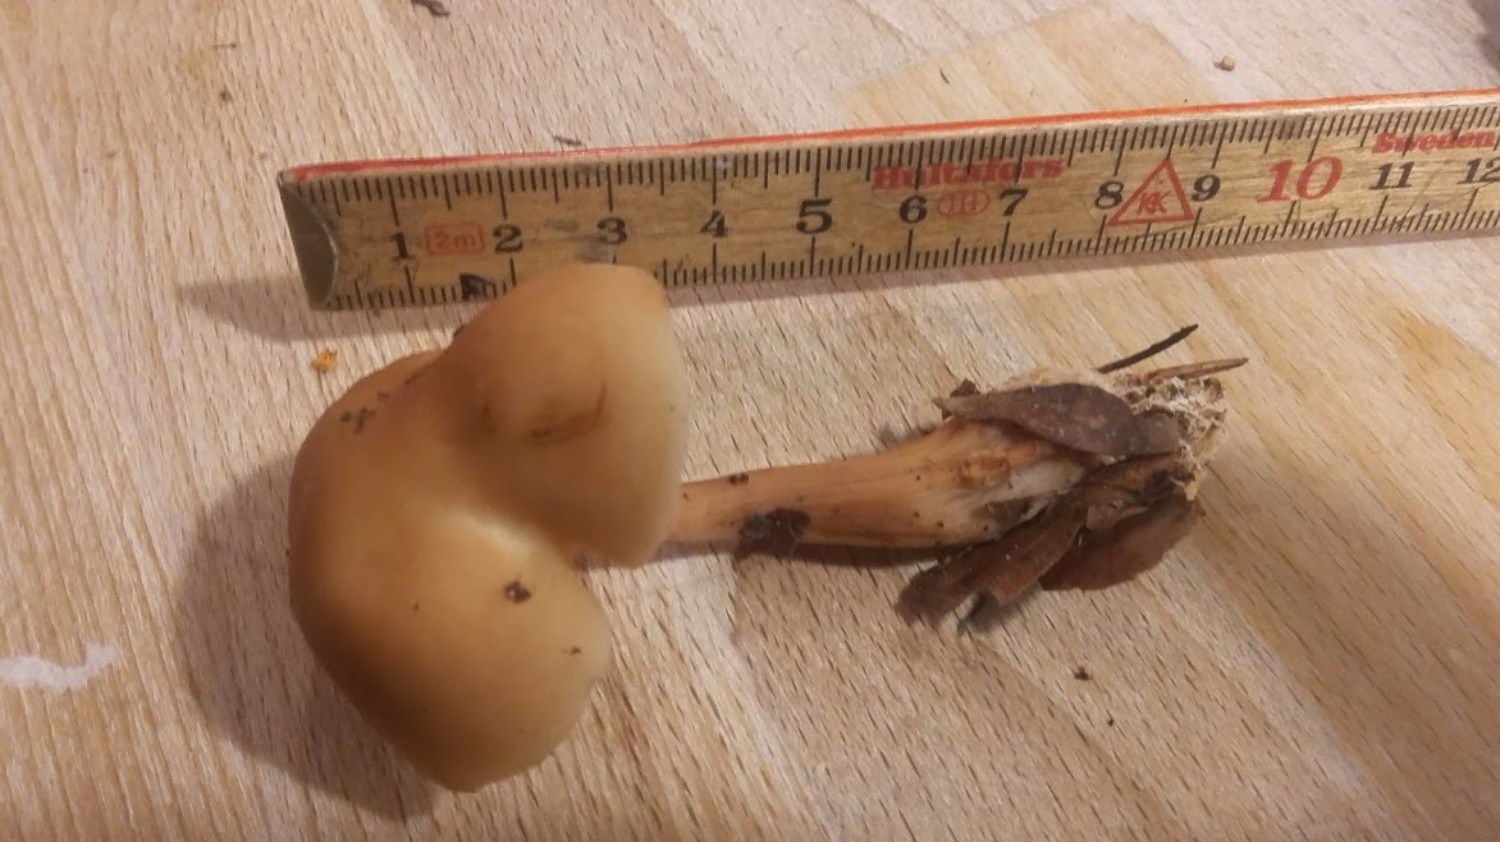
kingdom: Fungi
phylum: Basidiomycota
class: Agaricomycetes
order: Agaricales
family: Omphalotaceae
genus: Rhodocollybia
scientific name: Rhodocollybia asema
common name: horngrå fladhat
